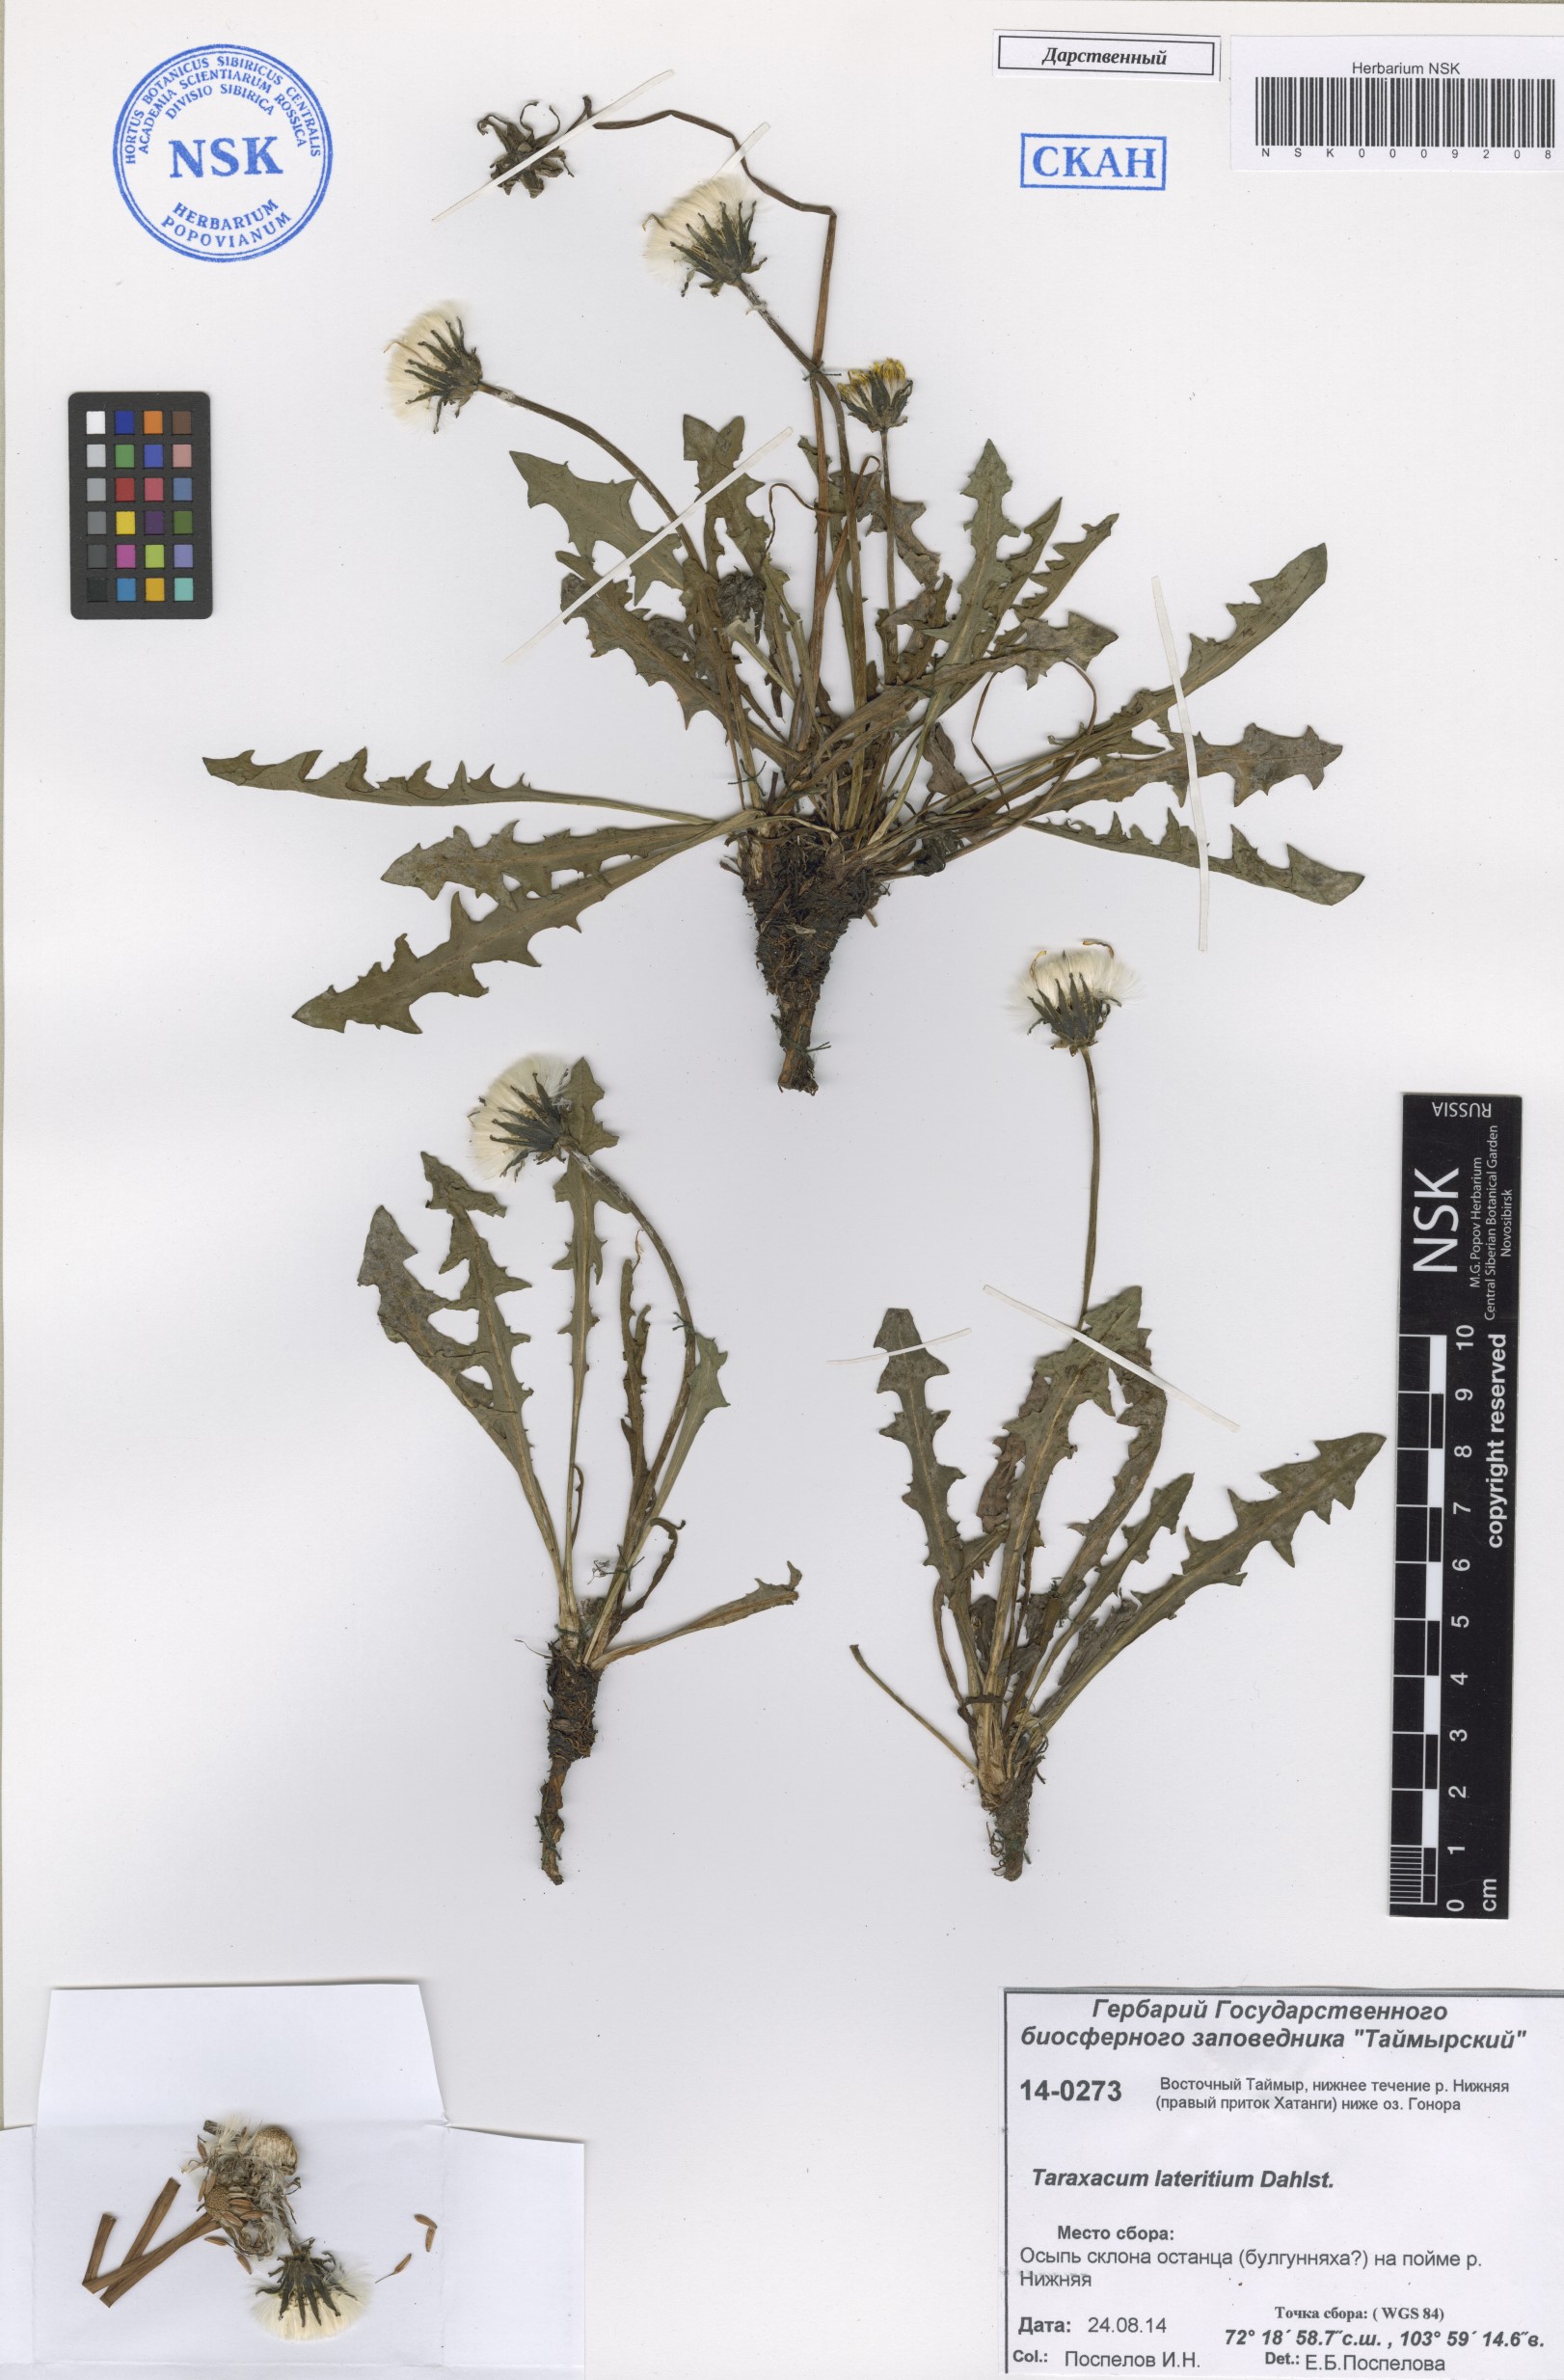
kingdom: Plantae
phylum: Tracheophyta
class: Magnoliopsida
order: Asterales
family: Asteraceae
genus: Taraxacum
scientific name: Taraxacum ceratophorum
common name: Horn-bearing dandelion
